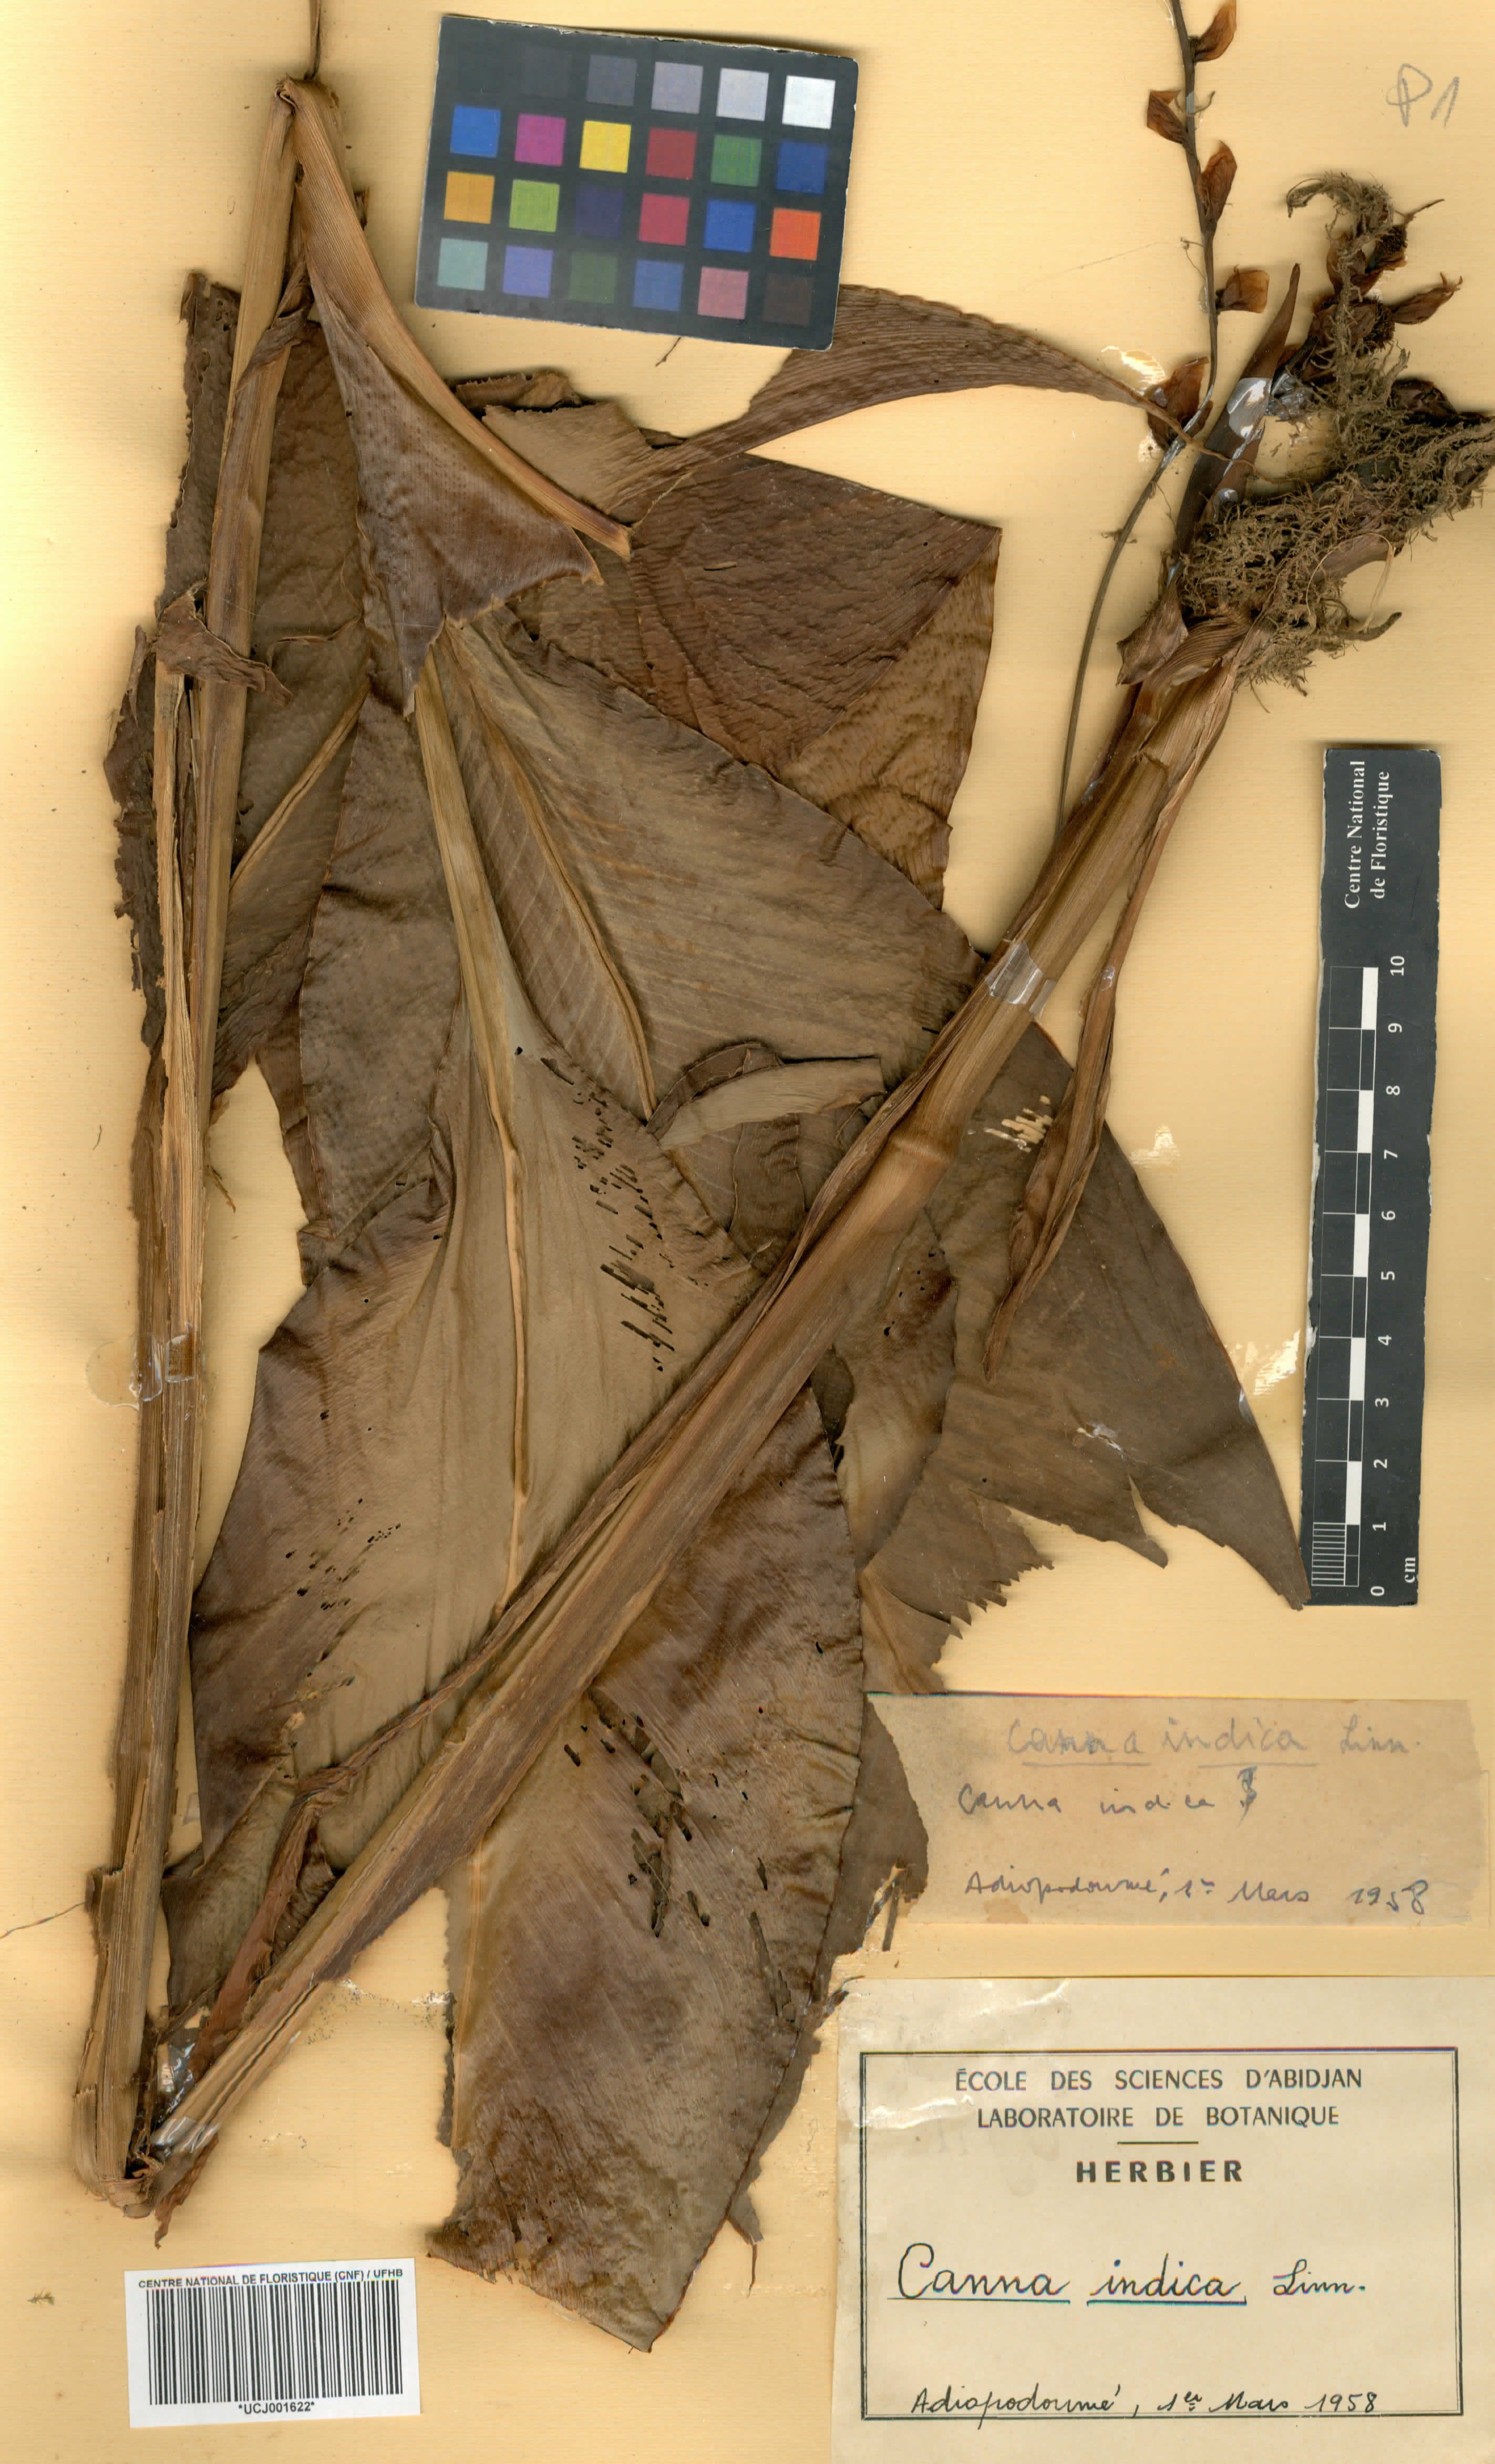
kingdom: Plantae
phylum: Tracheophyta
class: Liliopsida
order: Zingiberales
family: Cannaceae
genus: Canna
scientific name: Canna indica
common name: Indian shot
